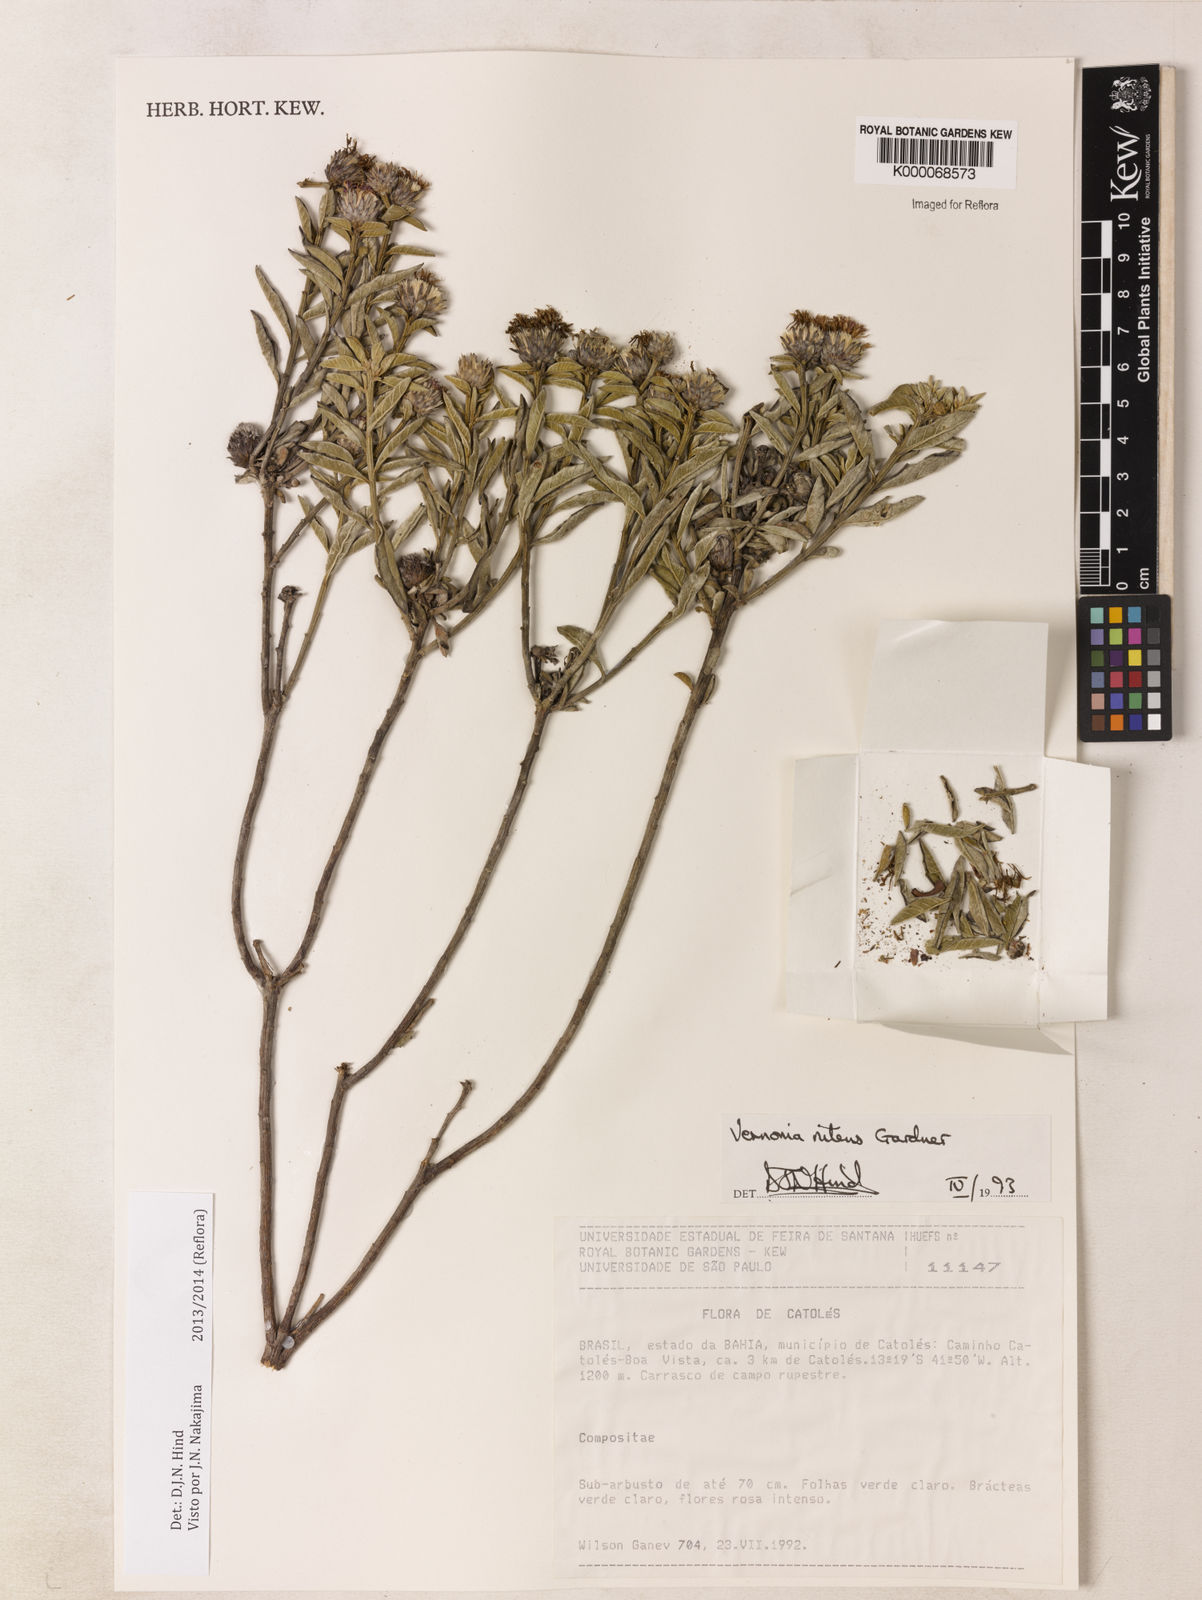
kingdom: Plantae
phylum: Tracheophyta
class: Magnoliopsida
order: Asterales
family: Asteraceae
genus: Lepidaploa
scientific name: Lepidaploa nitens
